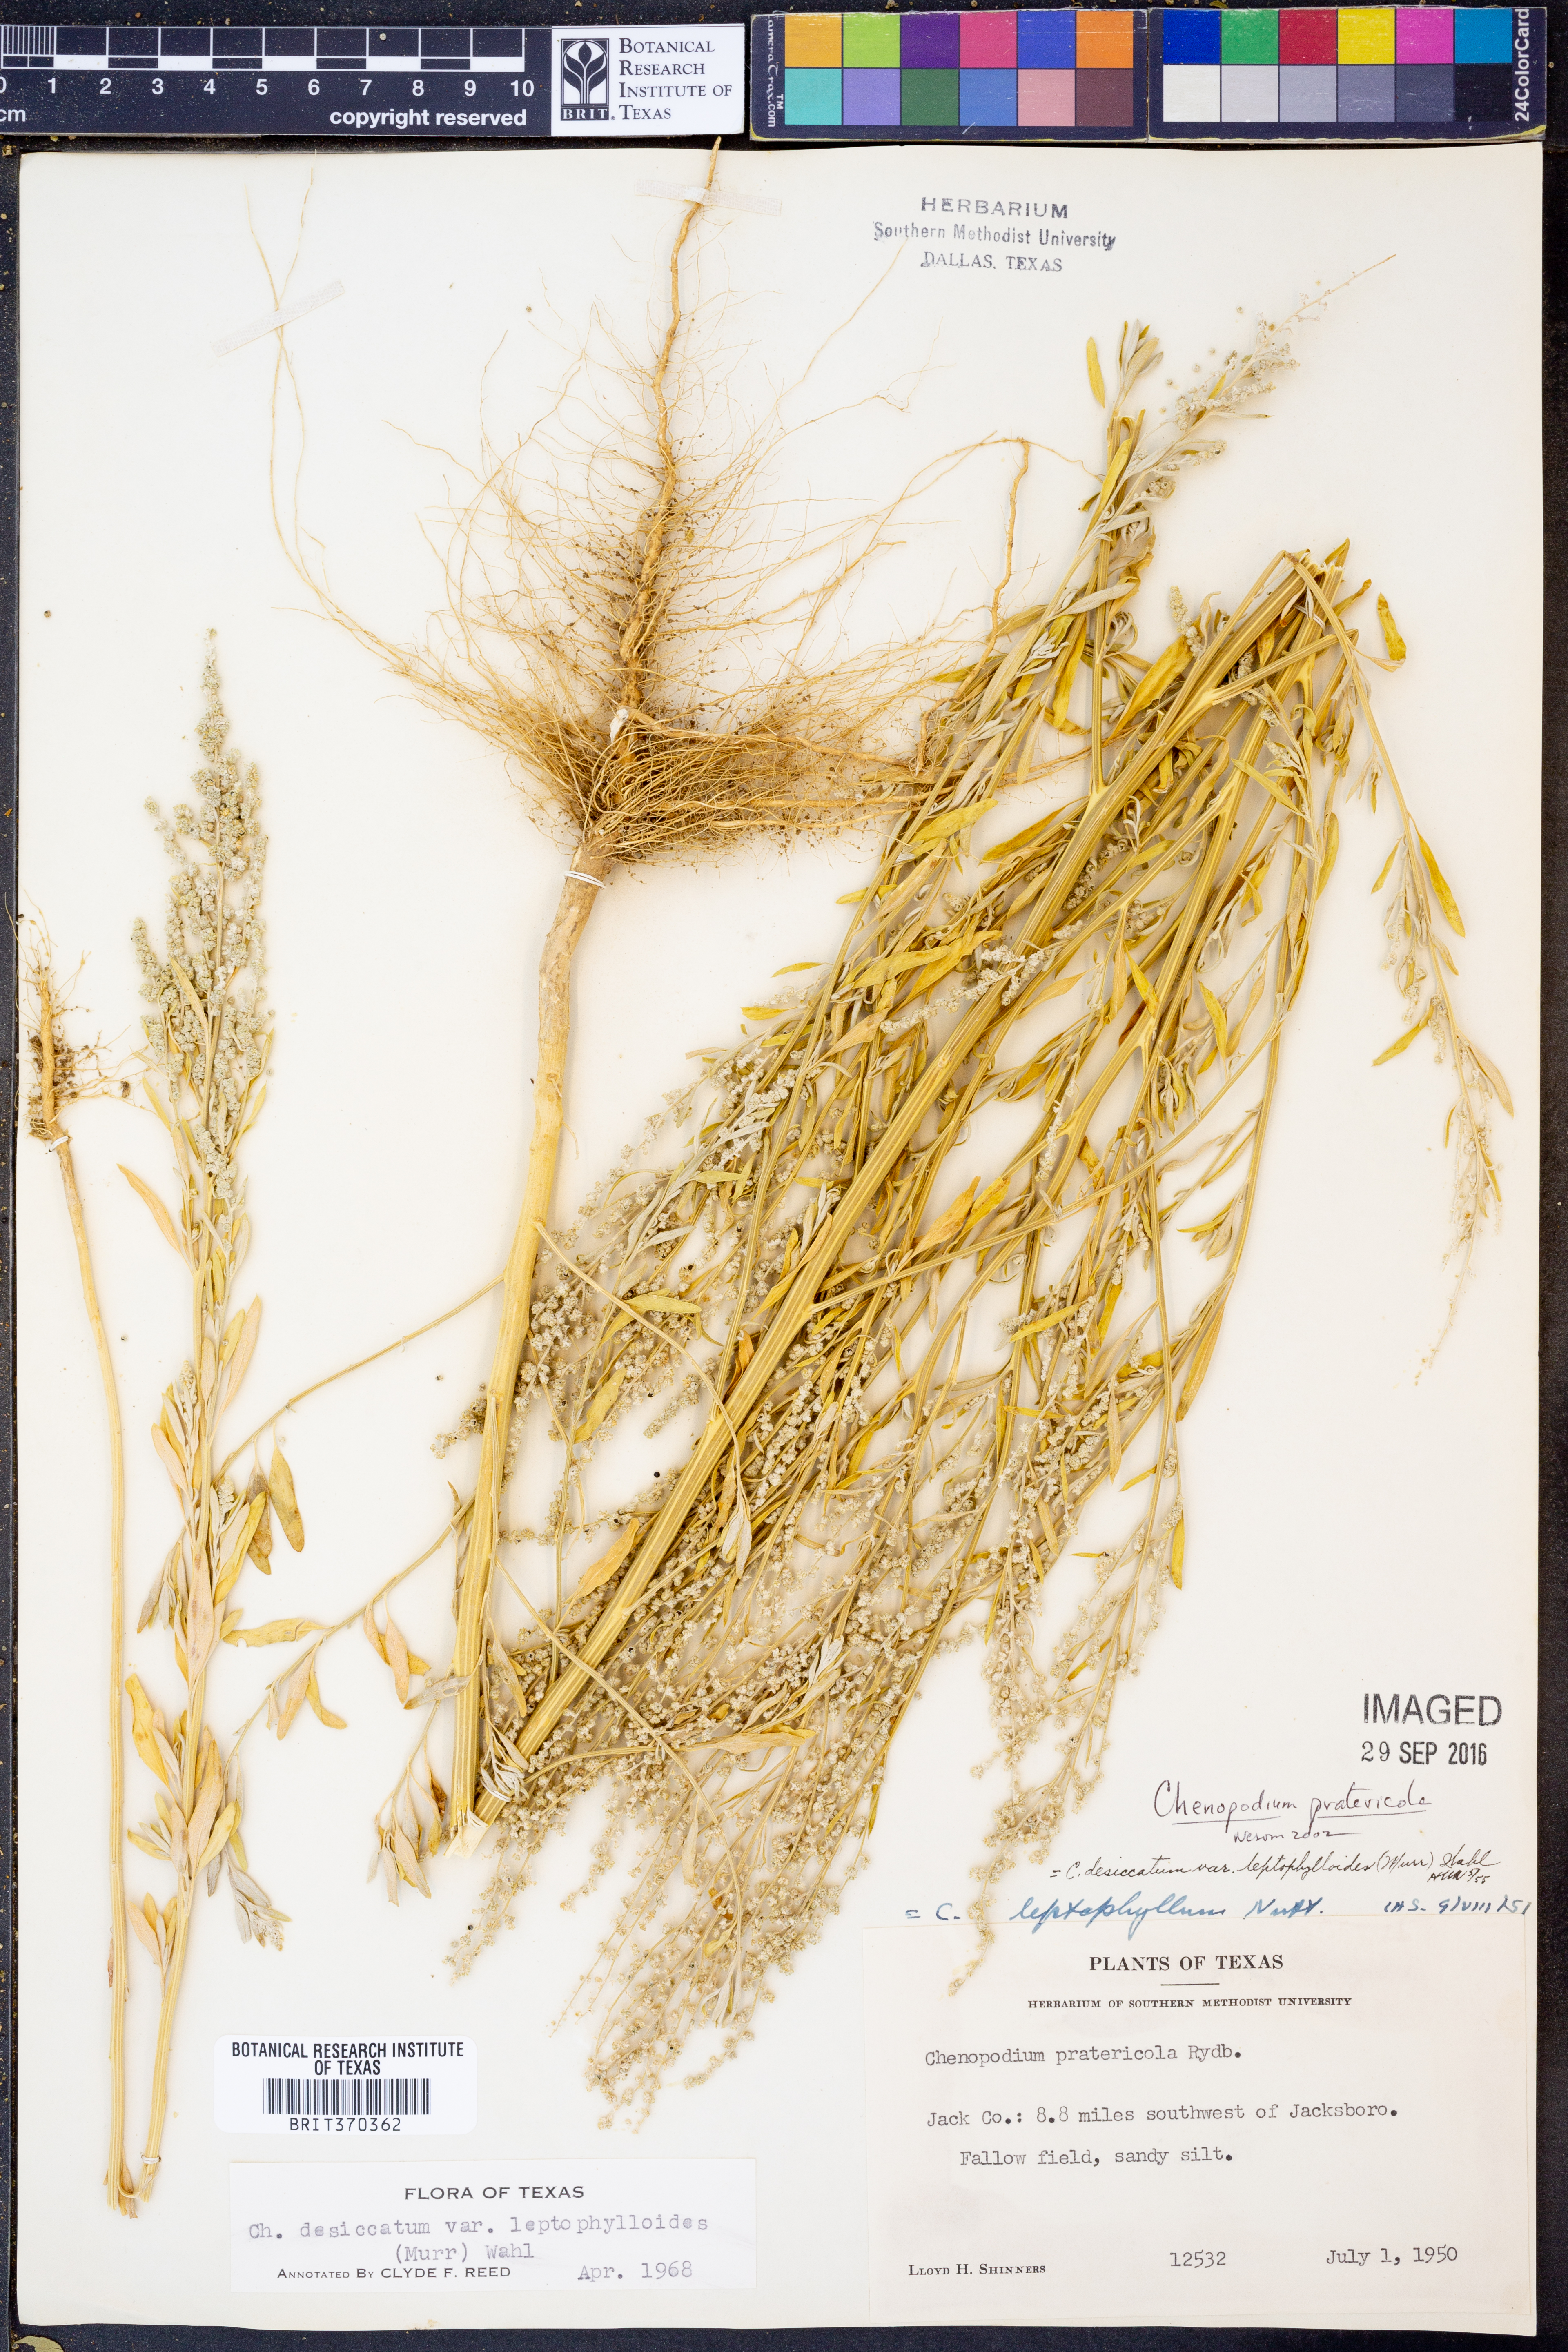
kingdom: Plantae
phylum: Tracheophyta
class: Magnoliopsida
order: Caryophyllales
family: Amaranthaceae
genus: Chenopodium
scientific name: Chenopodium pratericola
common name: Desert goosefoot
